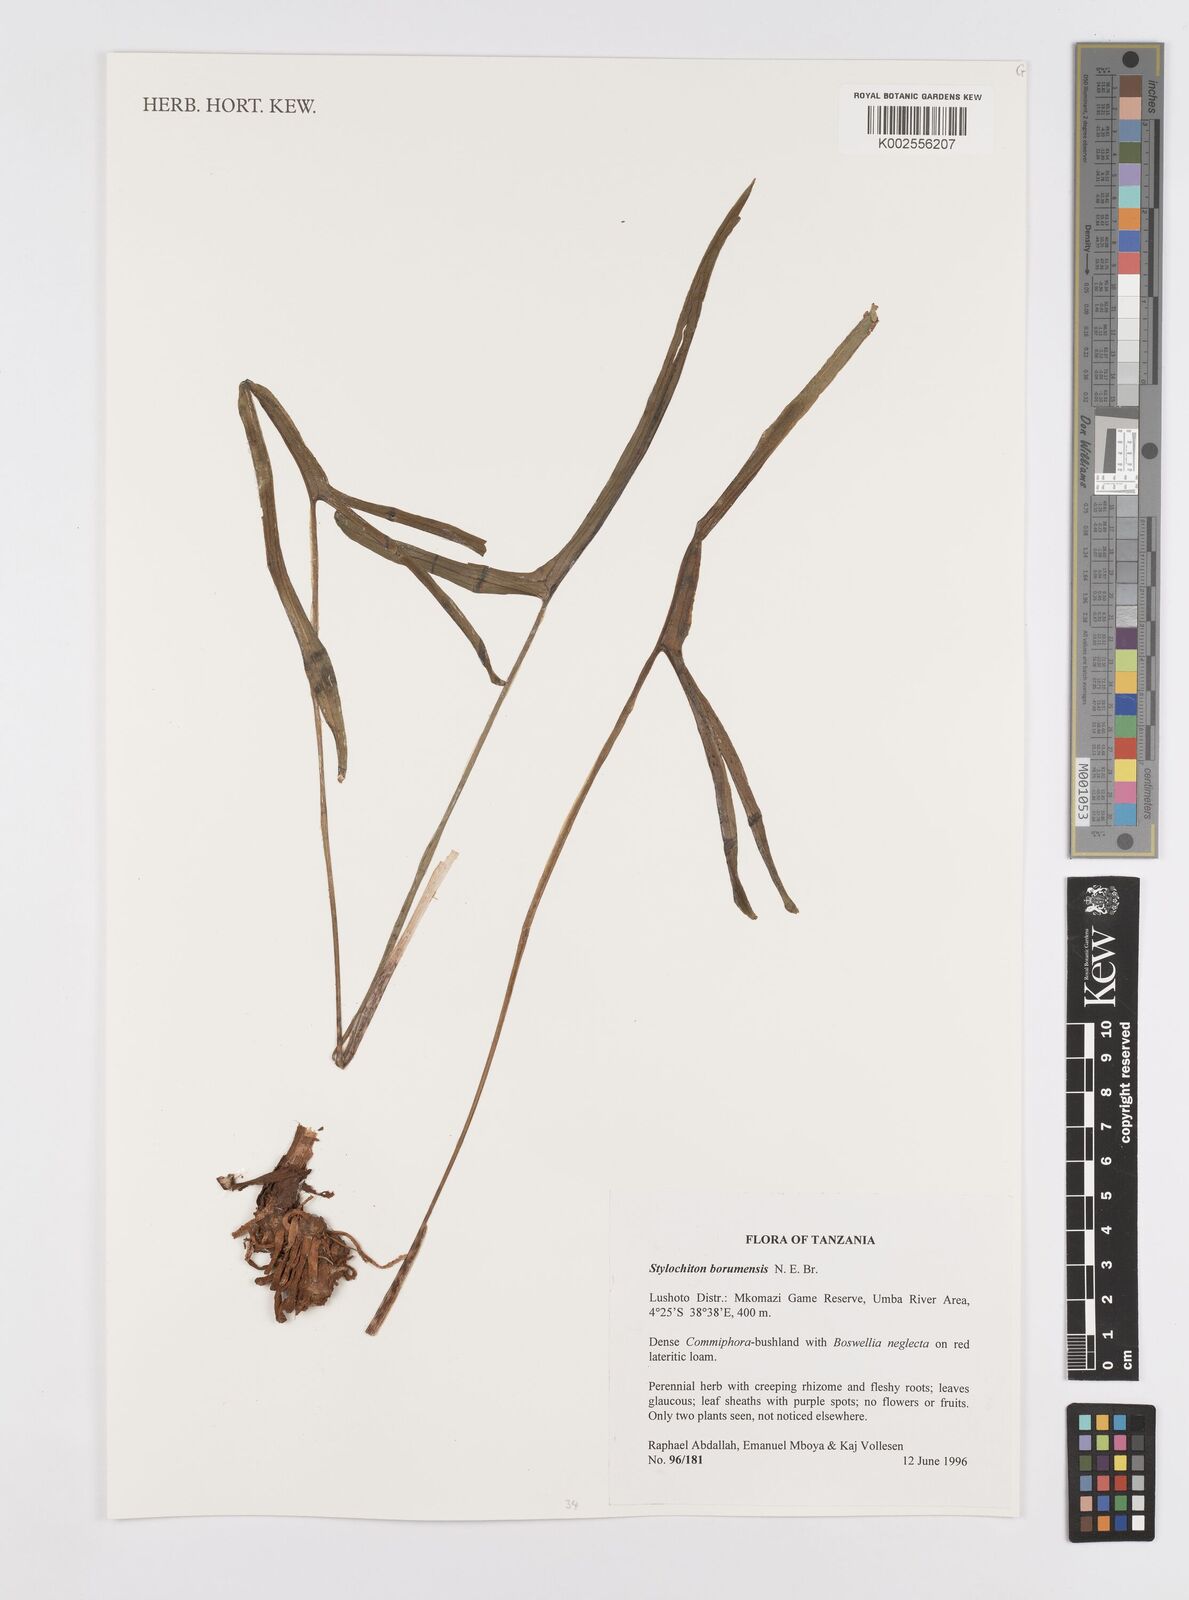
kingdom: Plantae
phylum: Tracheophyta
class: Liliopsida
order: Alismatales
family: Araceae
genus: Stylochaeton
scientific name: Stylochaeton borumense
